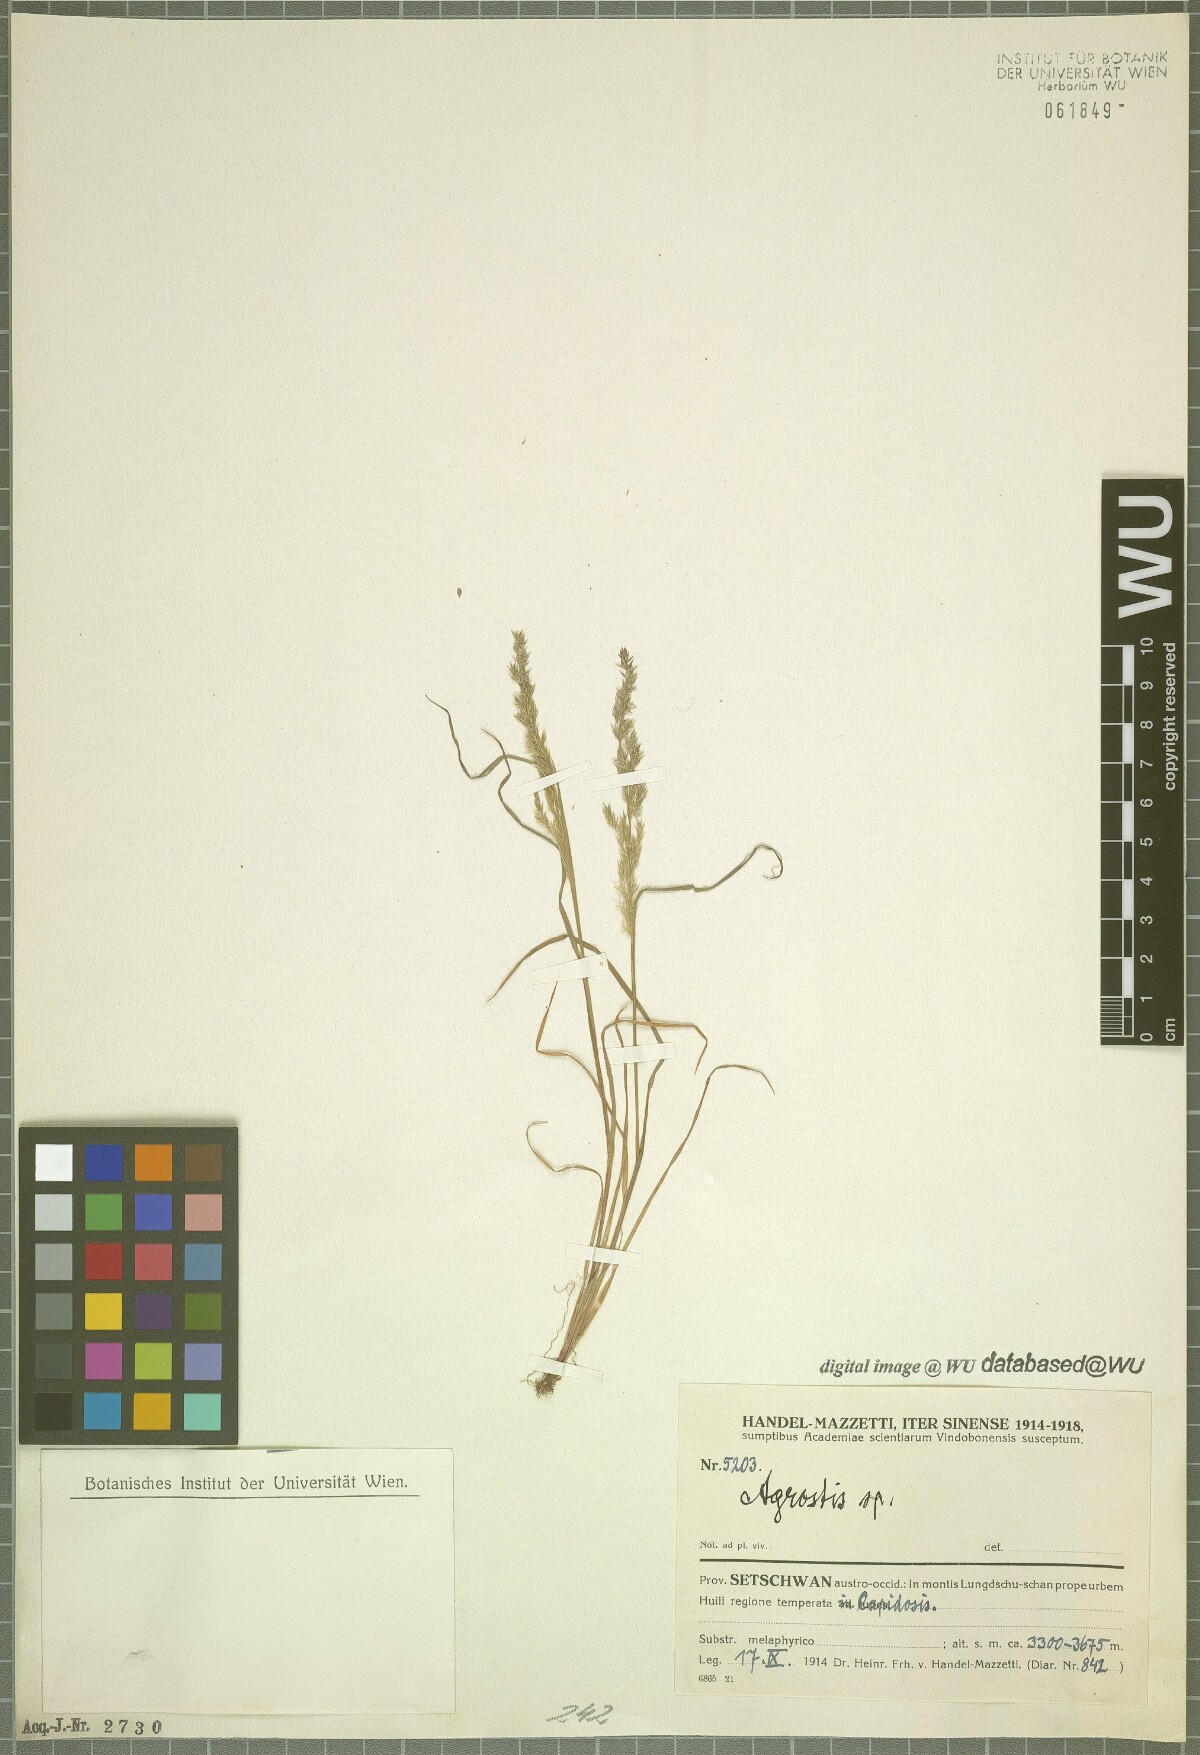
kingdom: Plantae
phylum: Tracheophyta
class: Liliopsida
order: Poales
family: Poaceae
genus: Agrostis
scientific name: Agrostis
